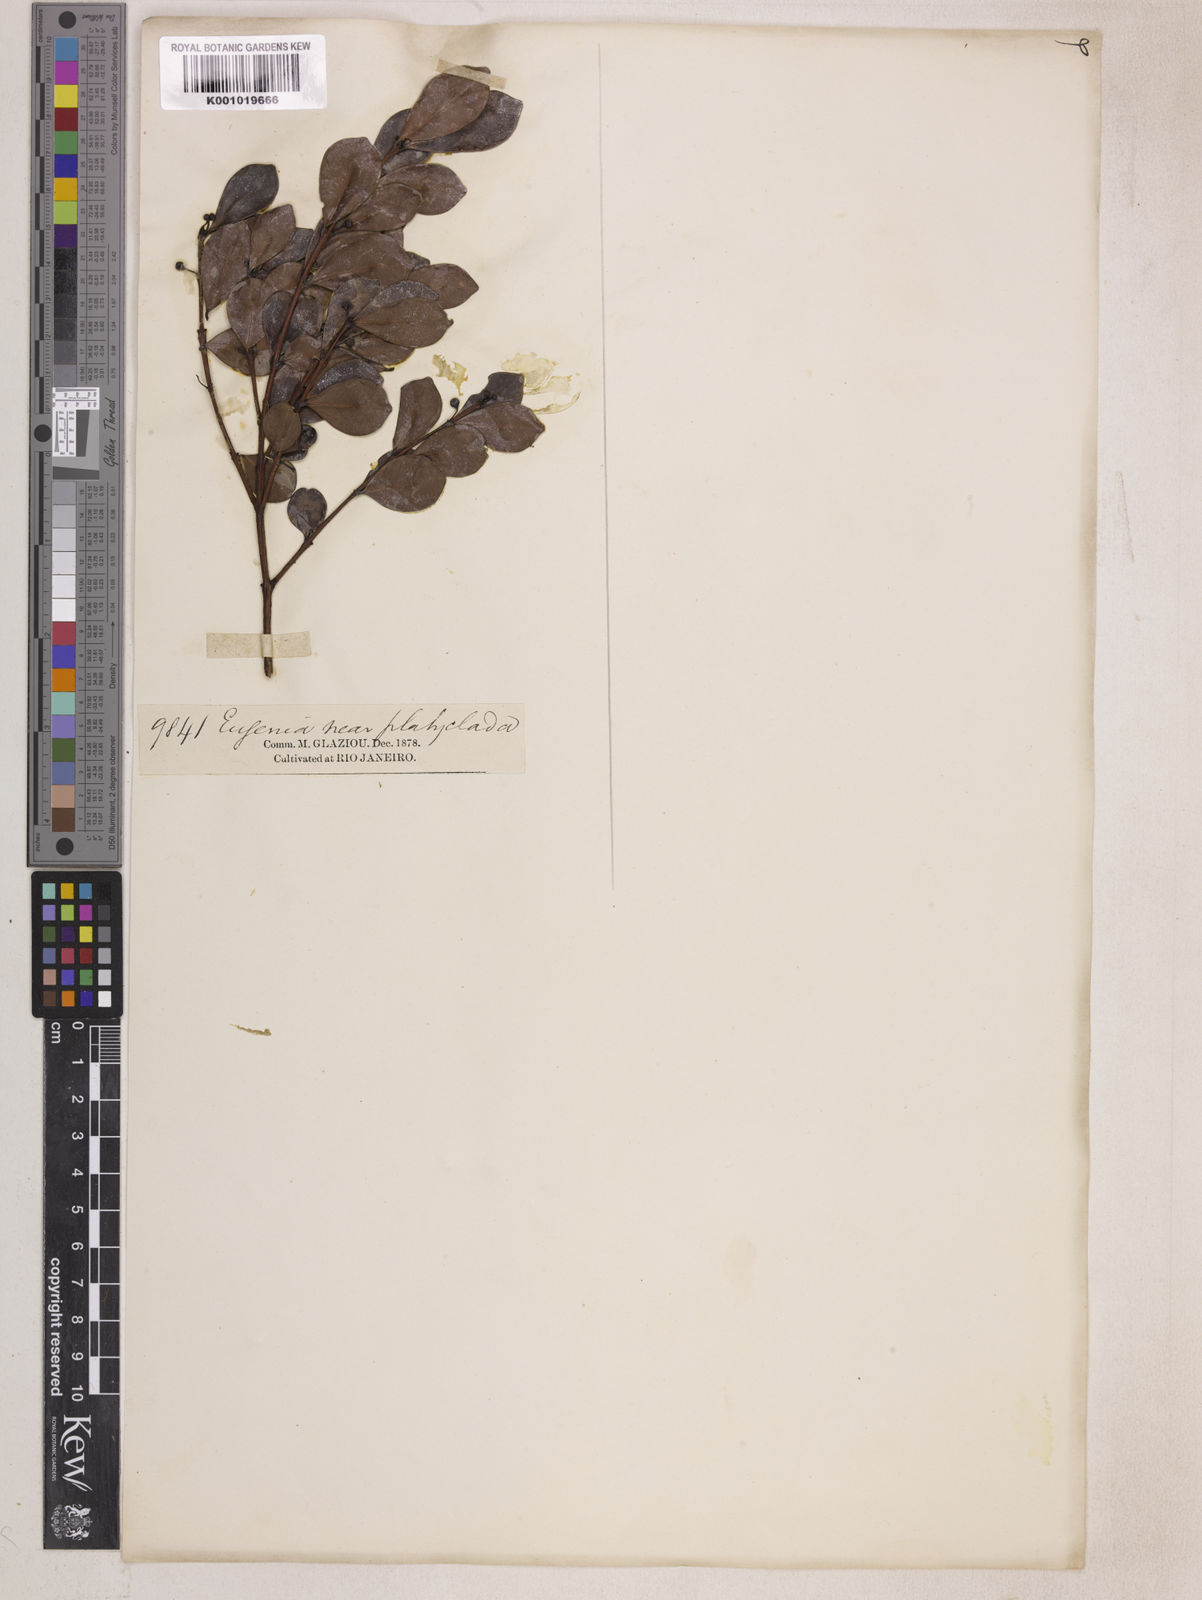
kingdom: Plantae
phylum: Tracheophyta
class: Magnoliopsida
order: Myrtales
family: Myrtaceae
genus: Eugenia
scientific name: Eugenia punicifolia
